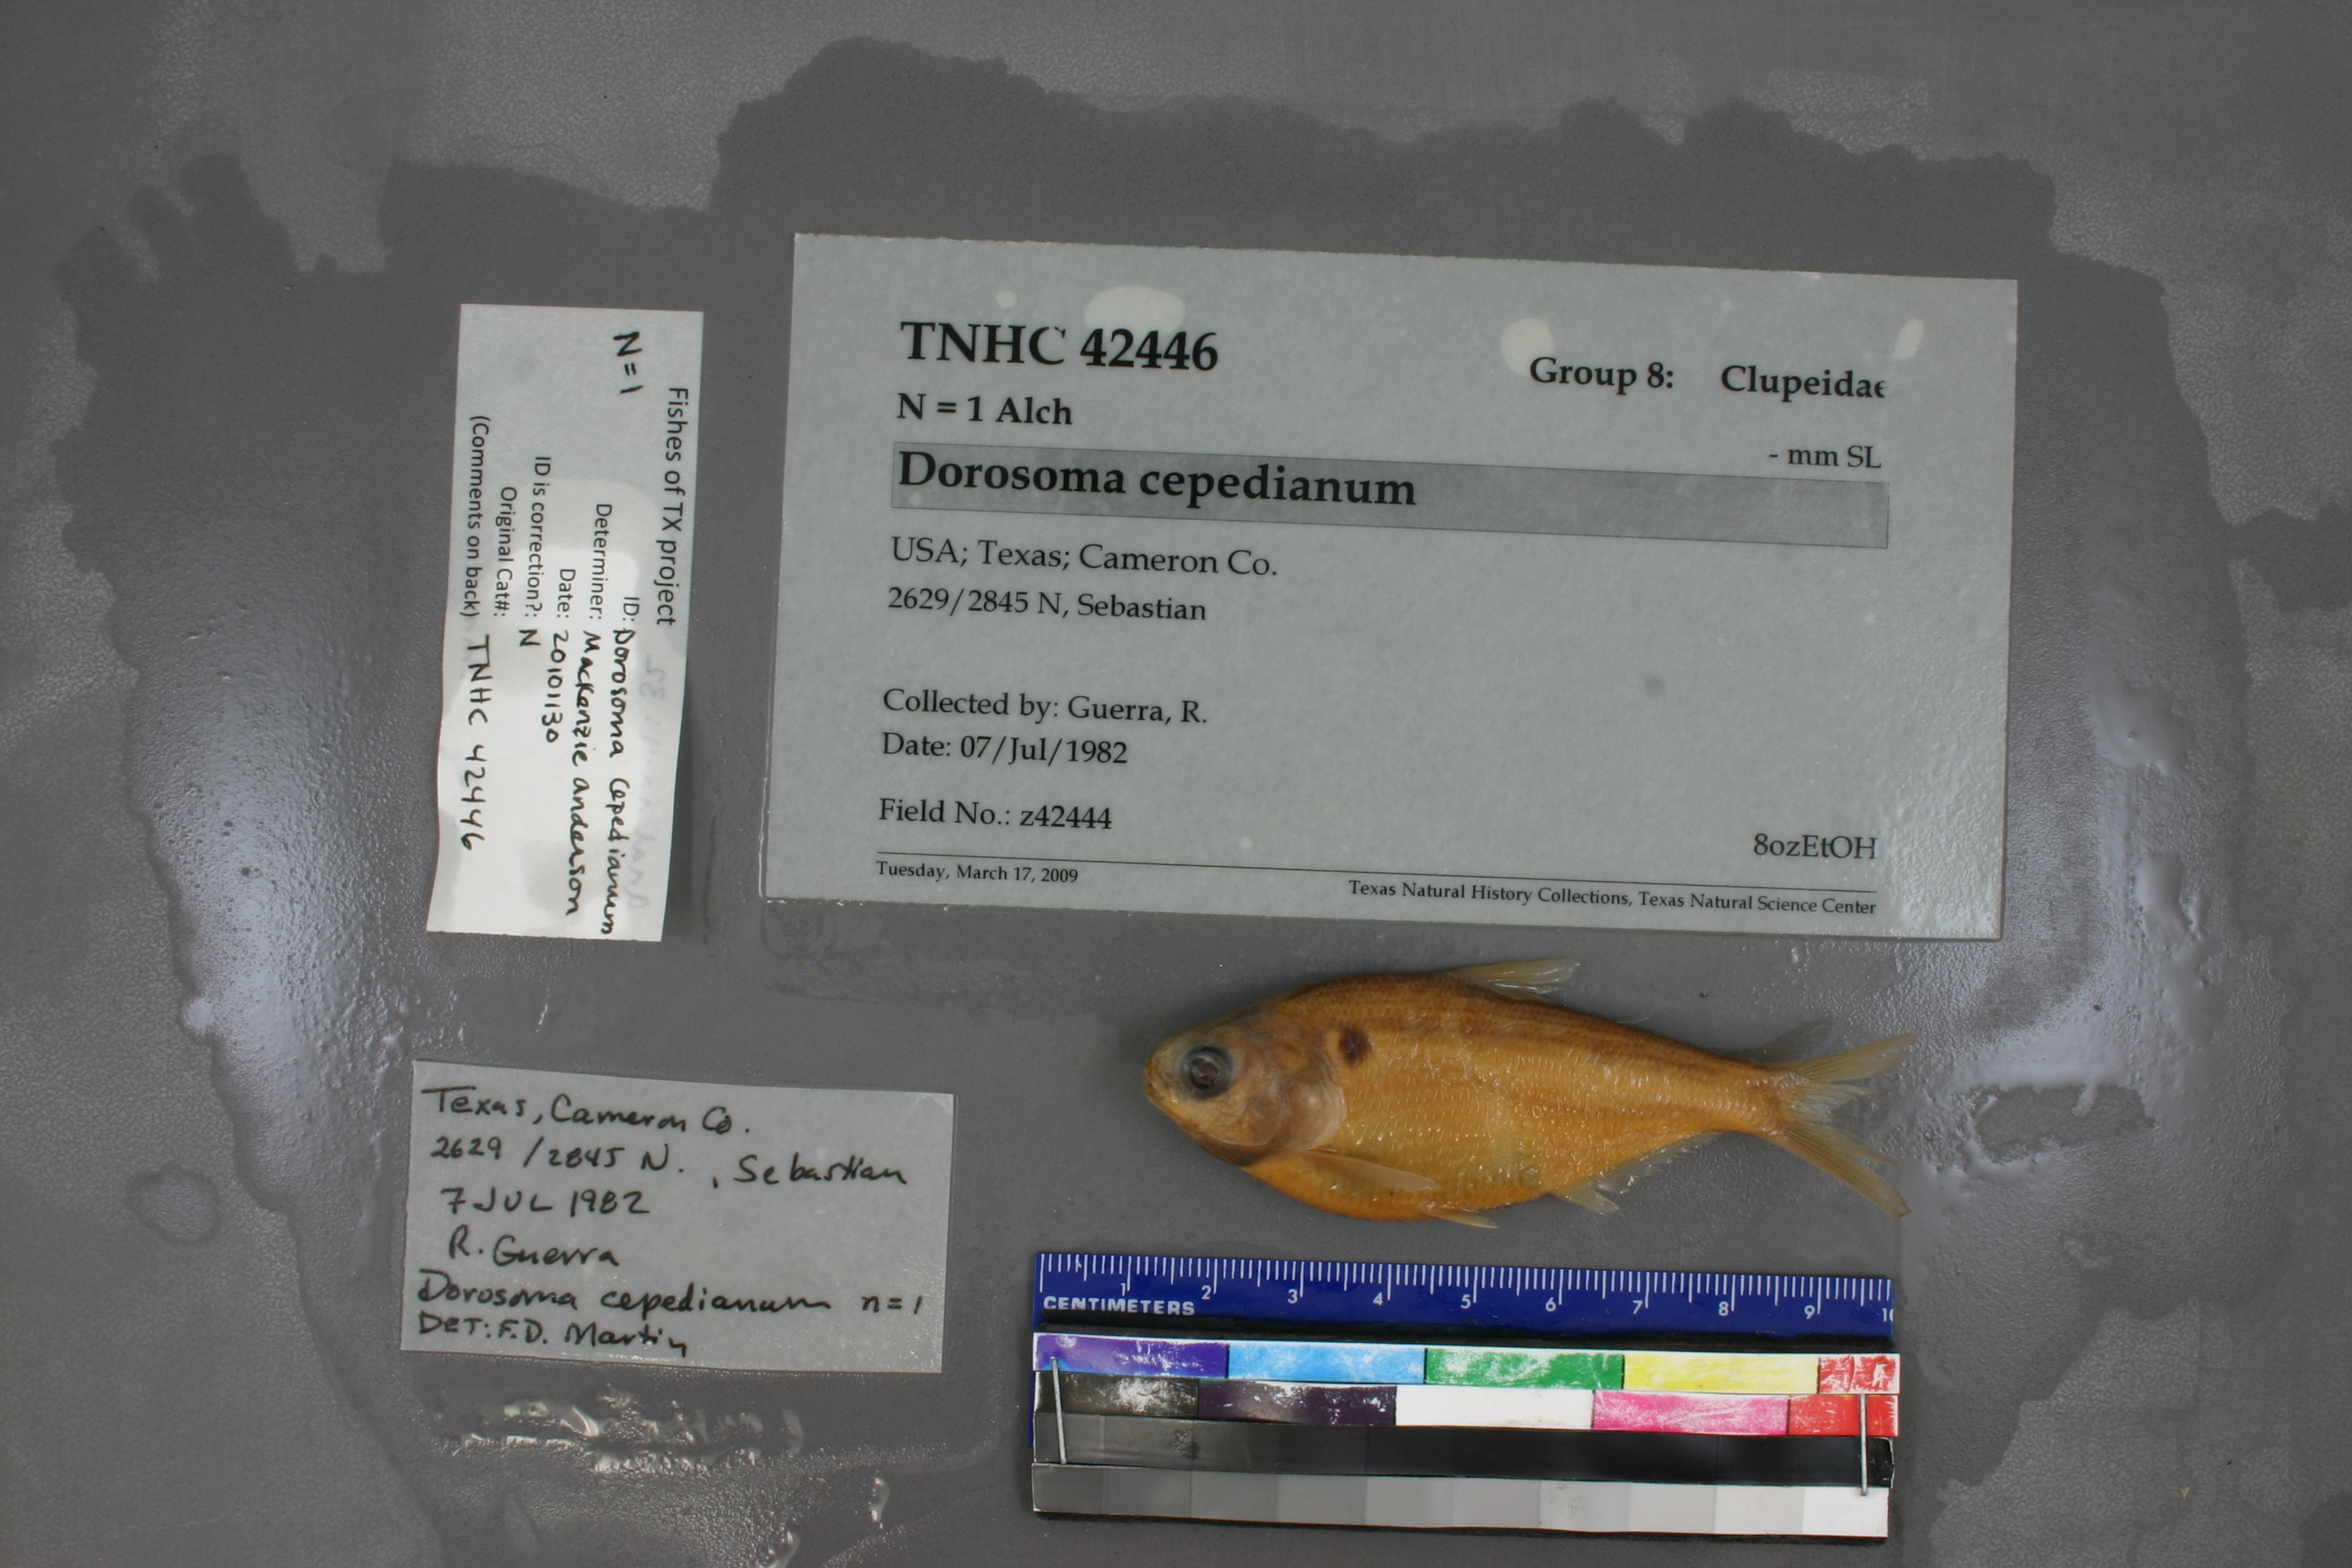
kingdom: Animalia
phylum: Chordata
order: Clupeiformes
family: Clupeidae
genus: Dorosoma
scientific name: Dorosoma cepedianum
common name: Gizzard shad
